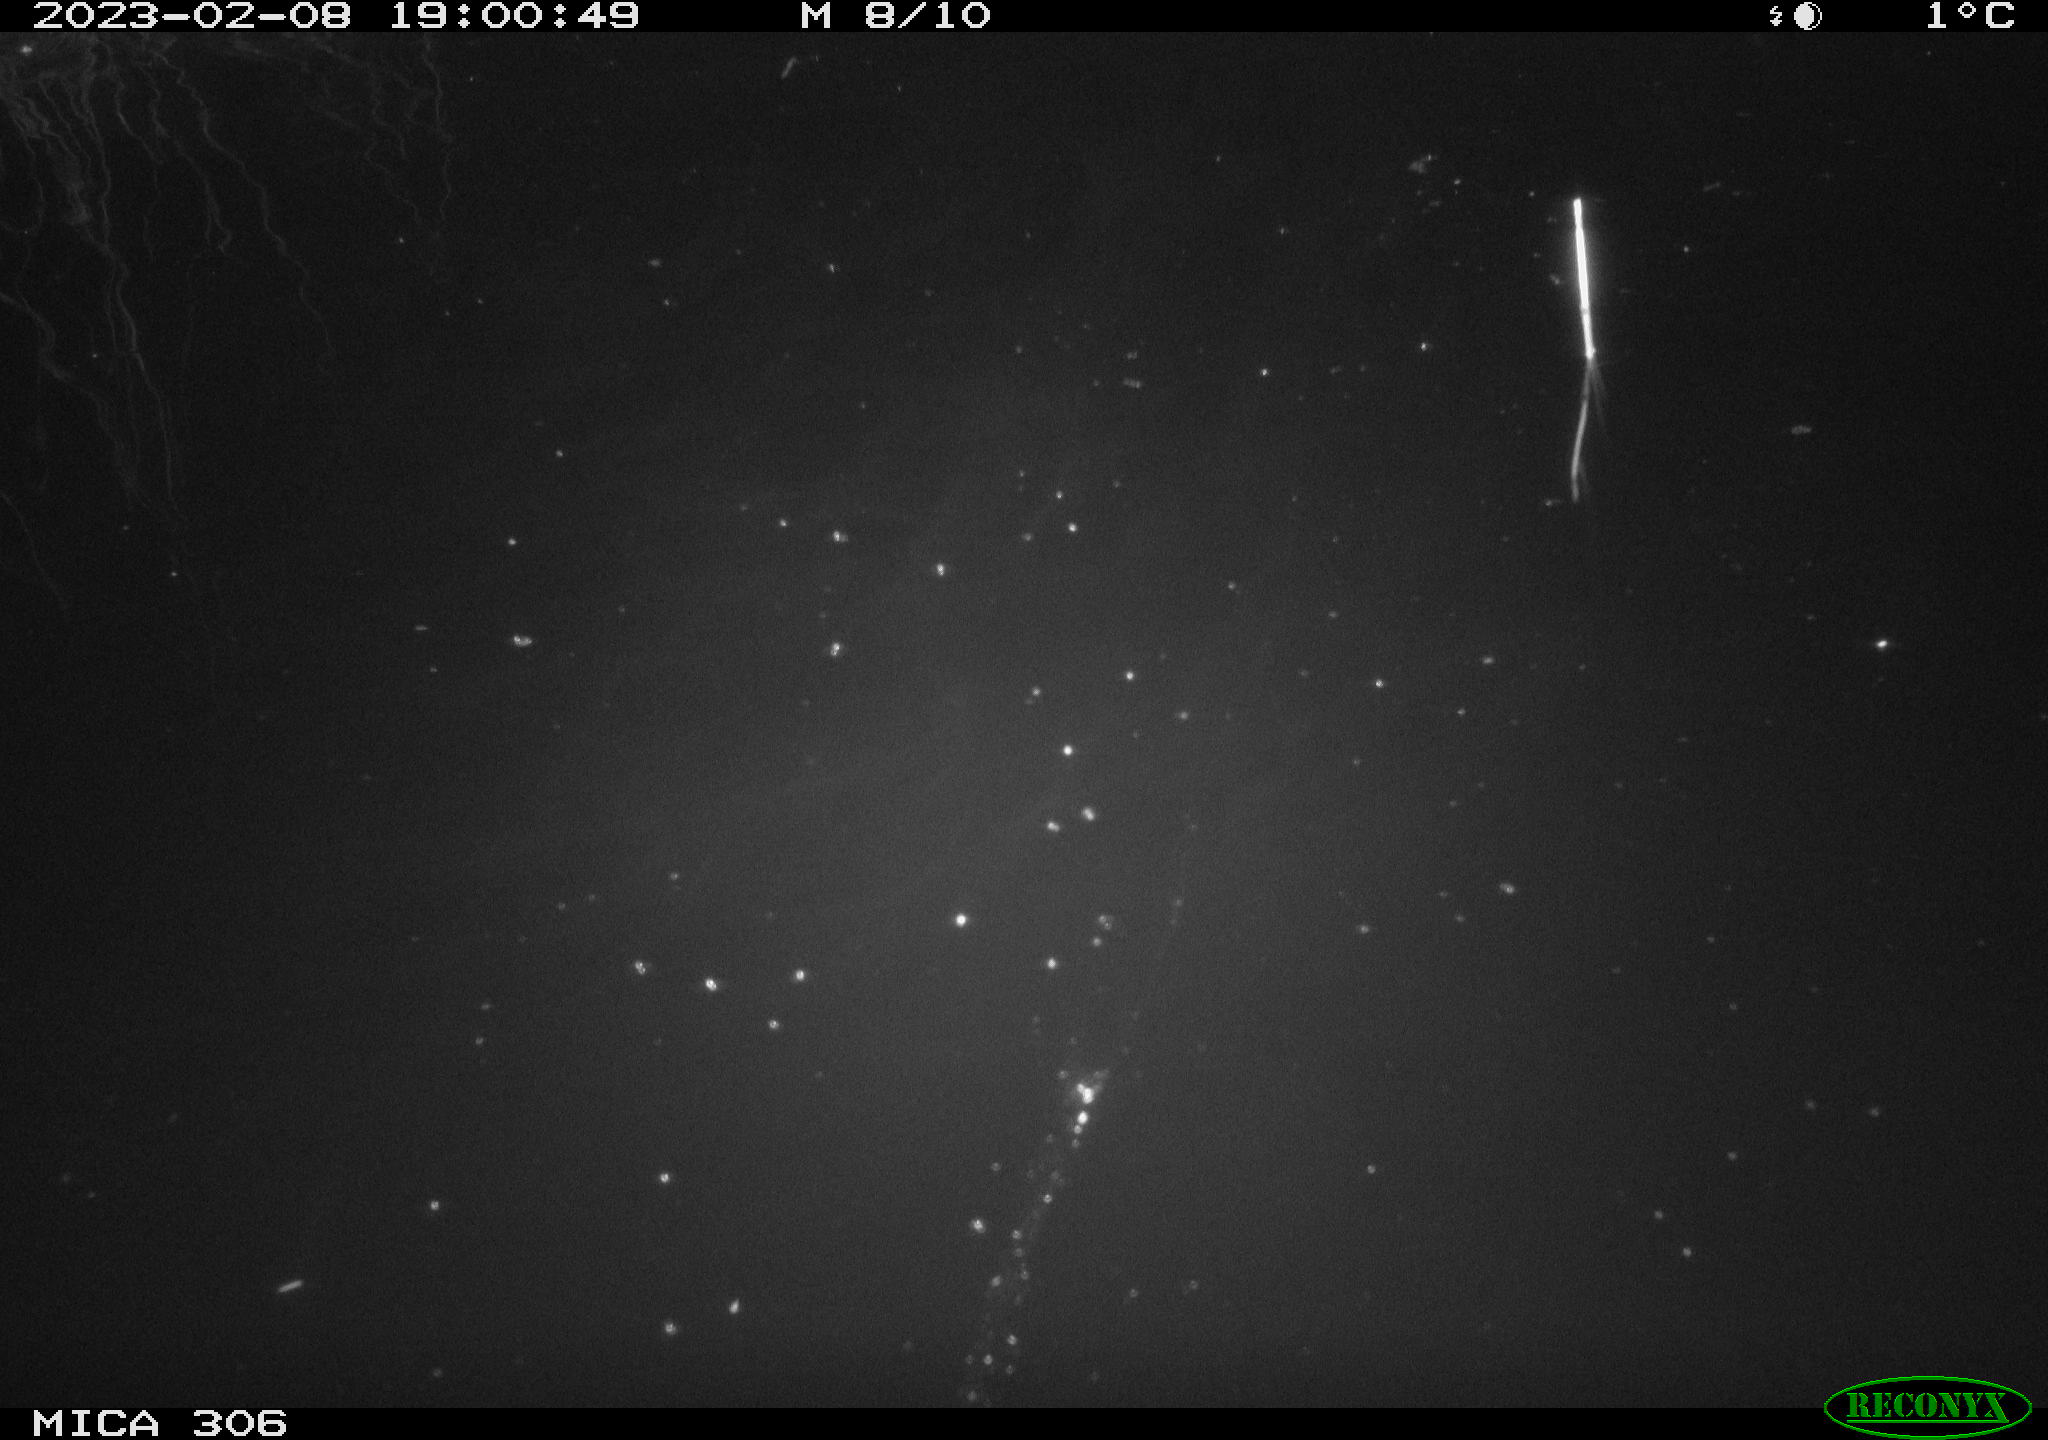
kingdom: Animalia
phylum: Chordata
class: Mammalia
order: Rodentia
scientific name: Rodentia
